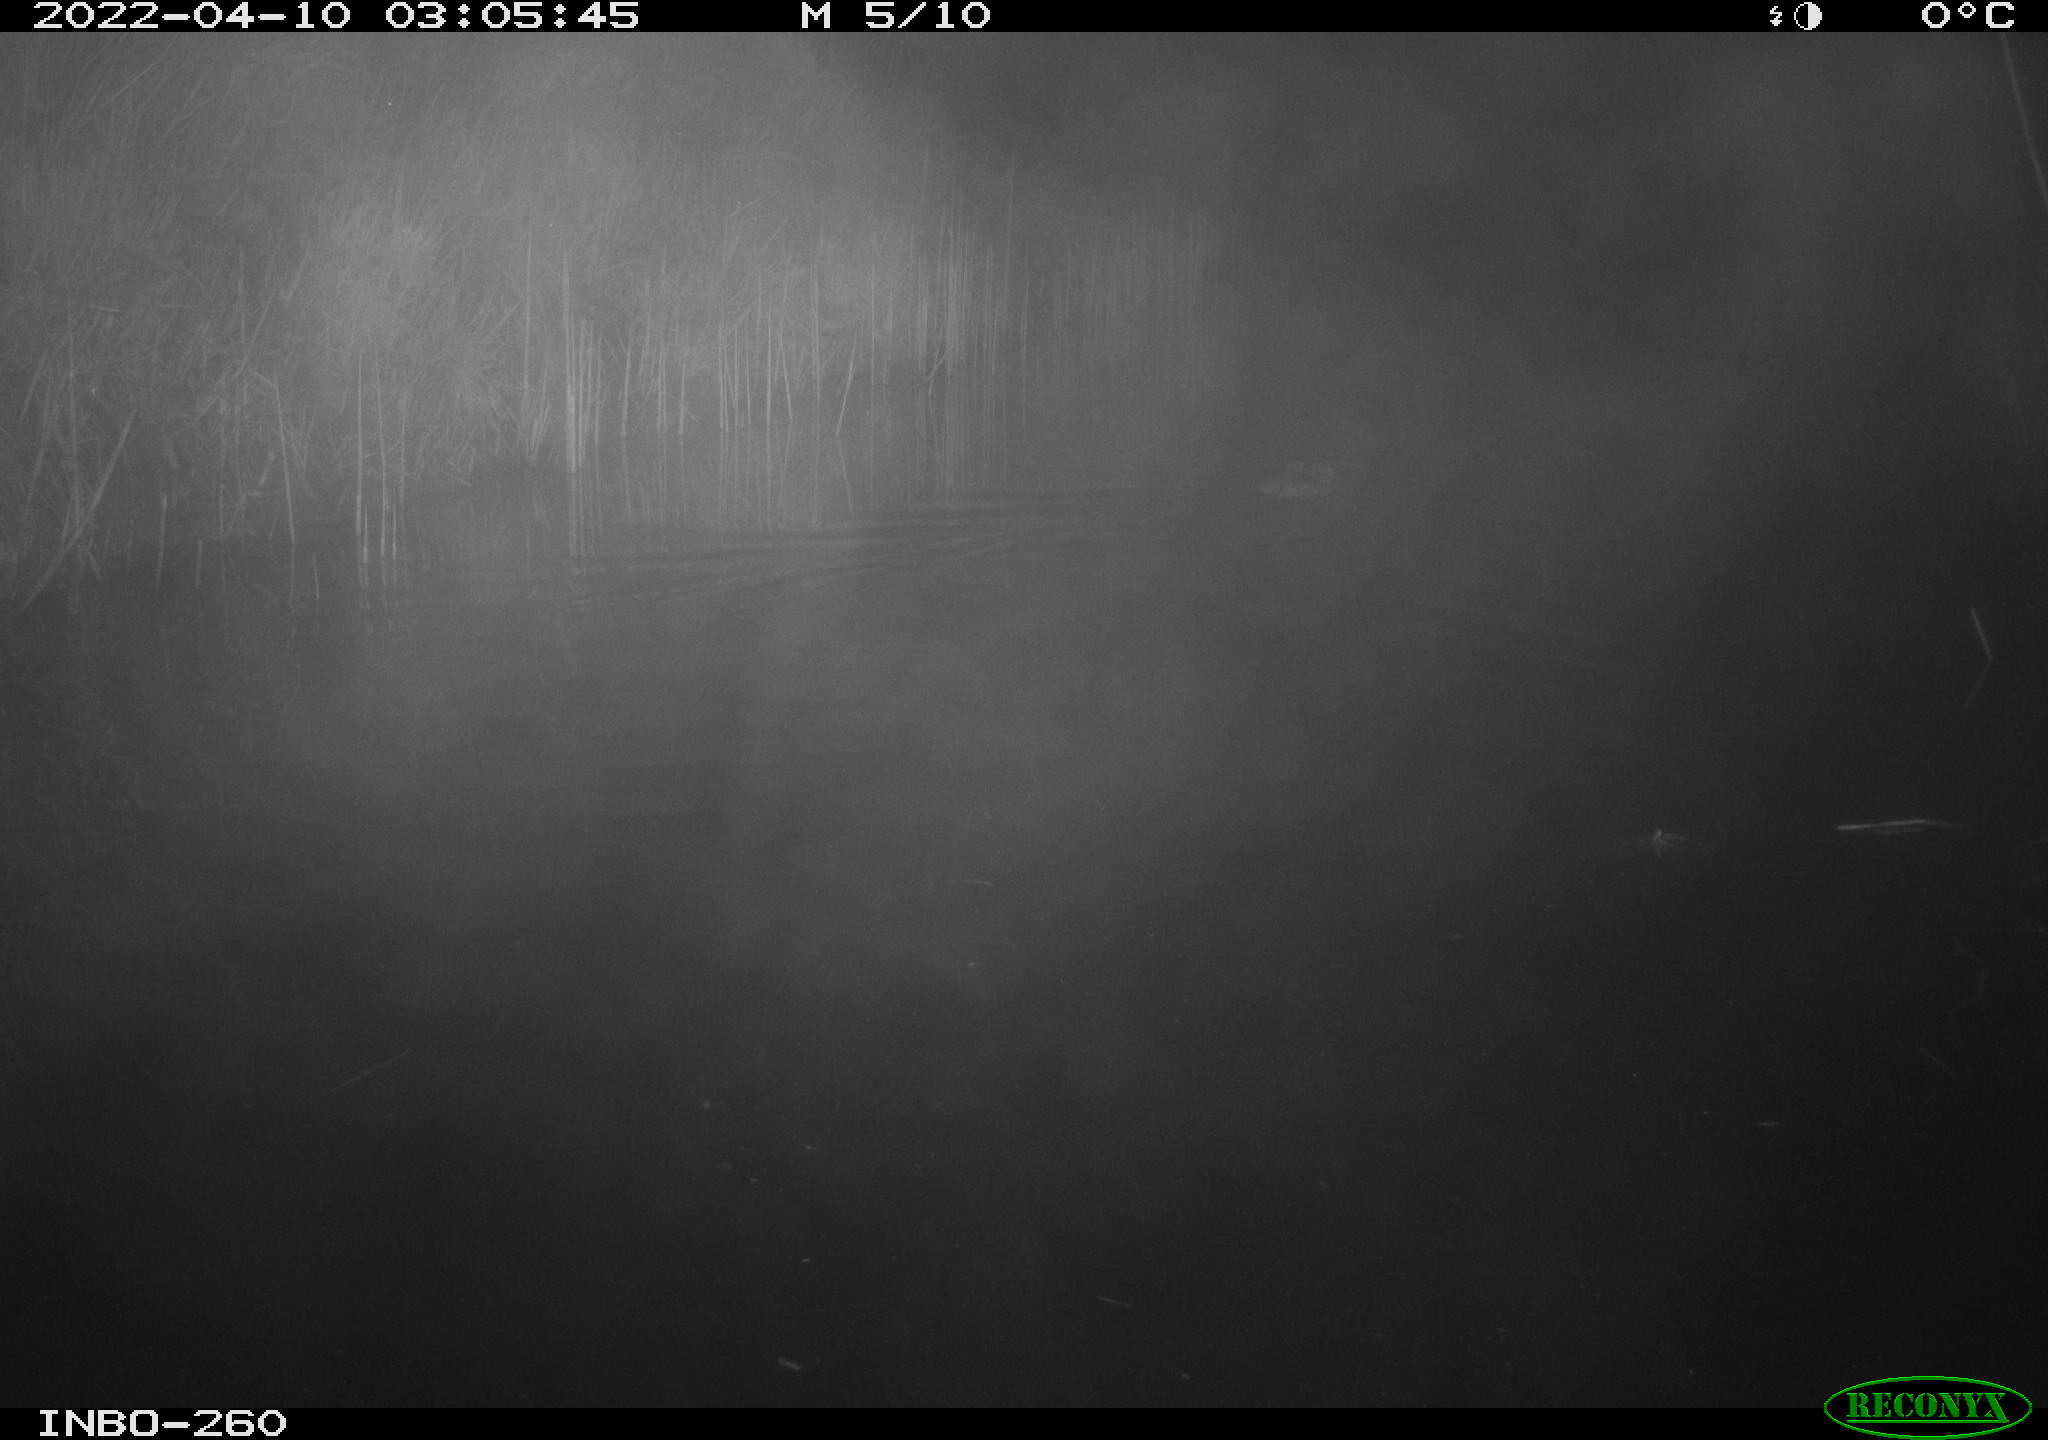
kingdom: Animalia
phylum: Chordata
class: Mammalia
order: Rodentia
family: Cricetidae
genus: Ondatra
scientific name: Ondatra zibethicus
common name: Muskrat
